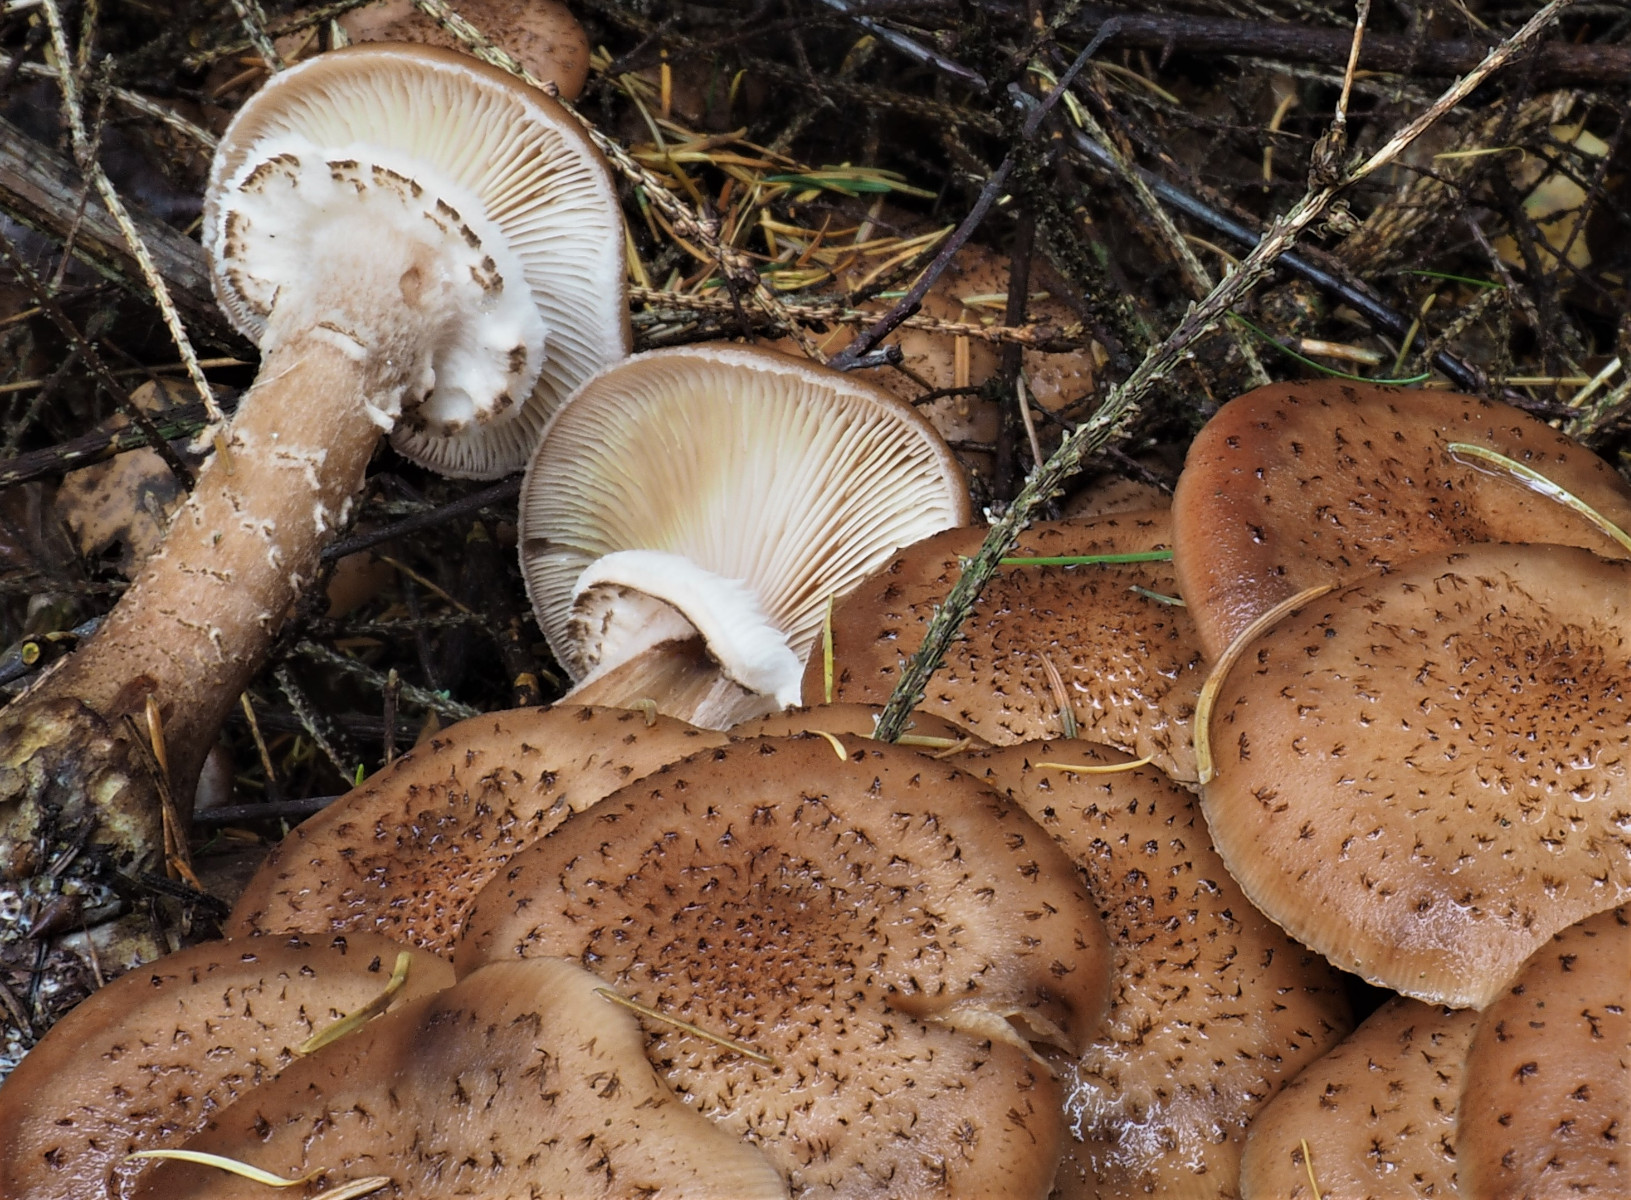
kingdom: Fungi
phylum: Basidiomycota
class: Agaricomycetes
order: Agaricales
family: Physalacriaceae
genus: Armillaria
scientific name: Armillaria ostoyae
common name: mørk honningsvamp
